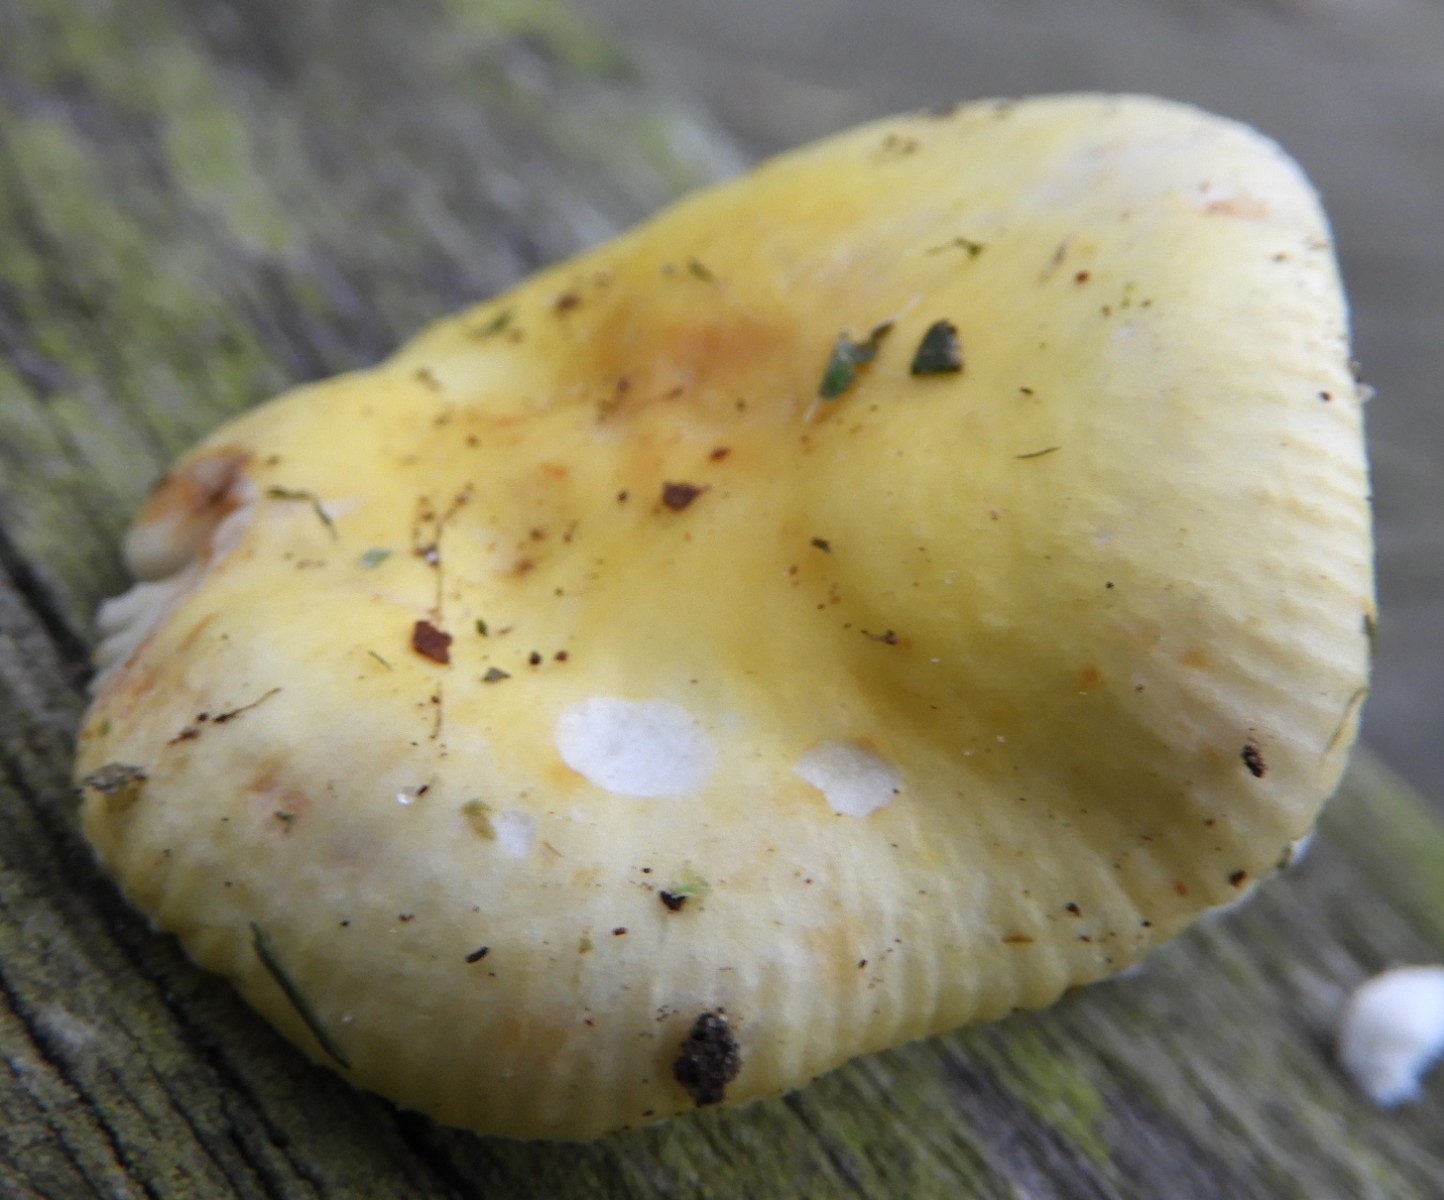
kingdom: Fungi
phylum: Basidiomycota
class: Agaricomycetes
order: Russulales
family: Russulaceae
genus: Russula
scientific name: Russula solaris
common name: sol-skørhat
